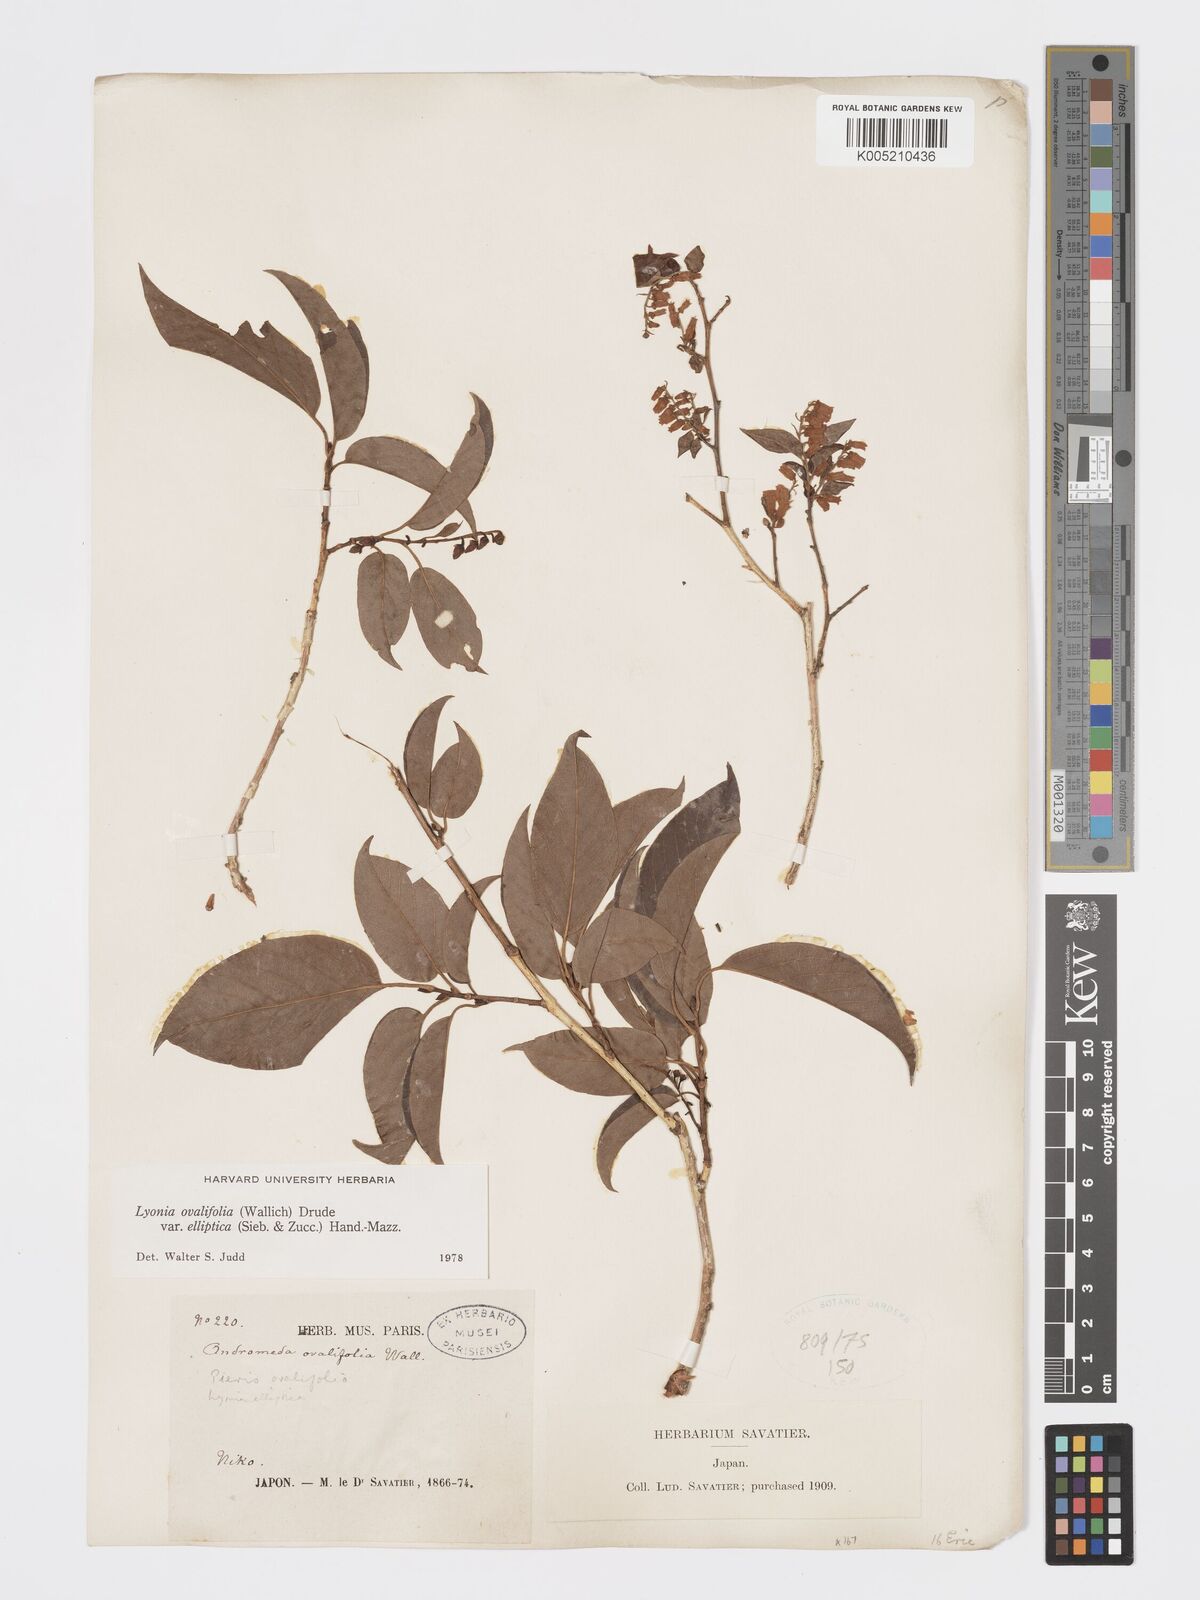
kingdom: Plantae
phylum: Tracheophyta
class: Magnoliopsida
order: Ericales
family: Ericaceae
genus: Lyonia
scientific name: Lyonia elliptica
